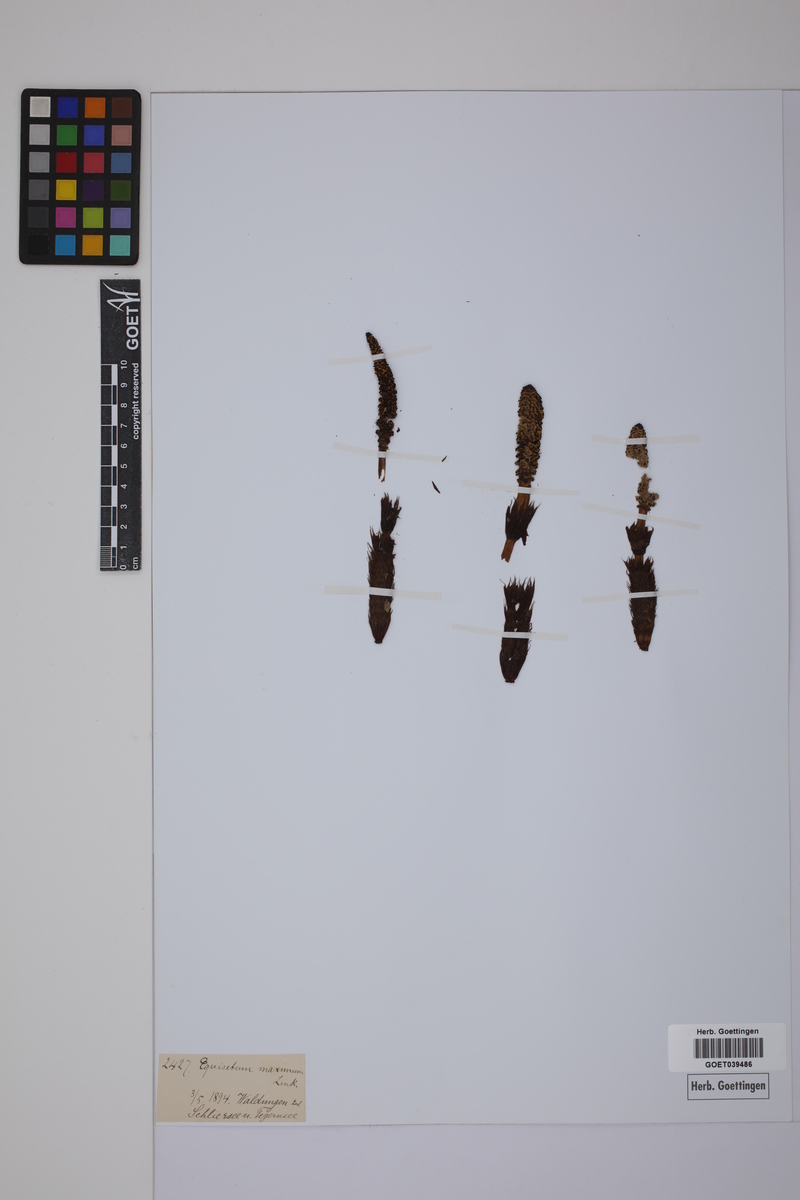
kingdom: Plantae
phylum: Tracheophyta
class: Polypodiopsida
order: Equisetales
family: Equisetaceae
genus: Equisetum
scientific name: Equisetum telmateia
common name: Great horsetail
